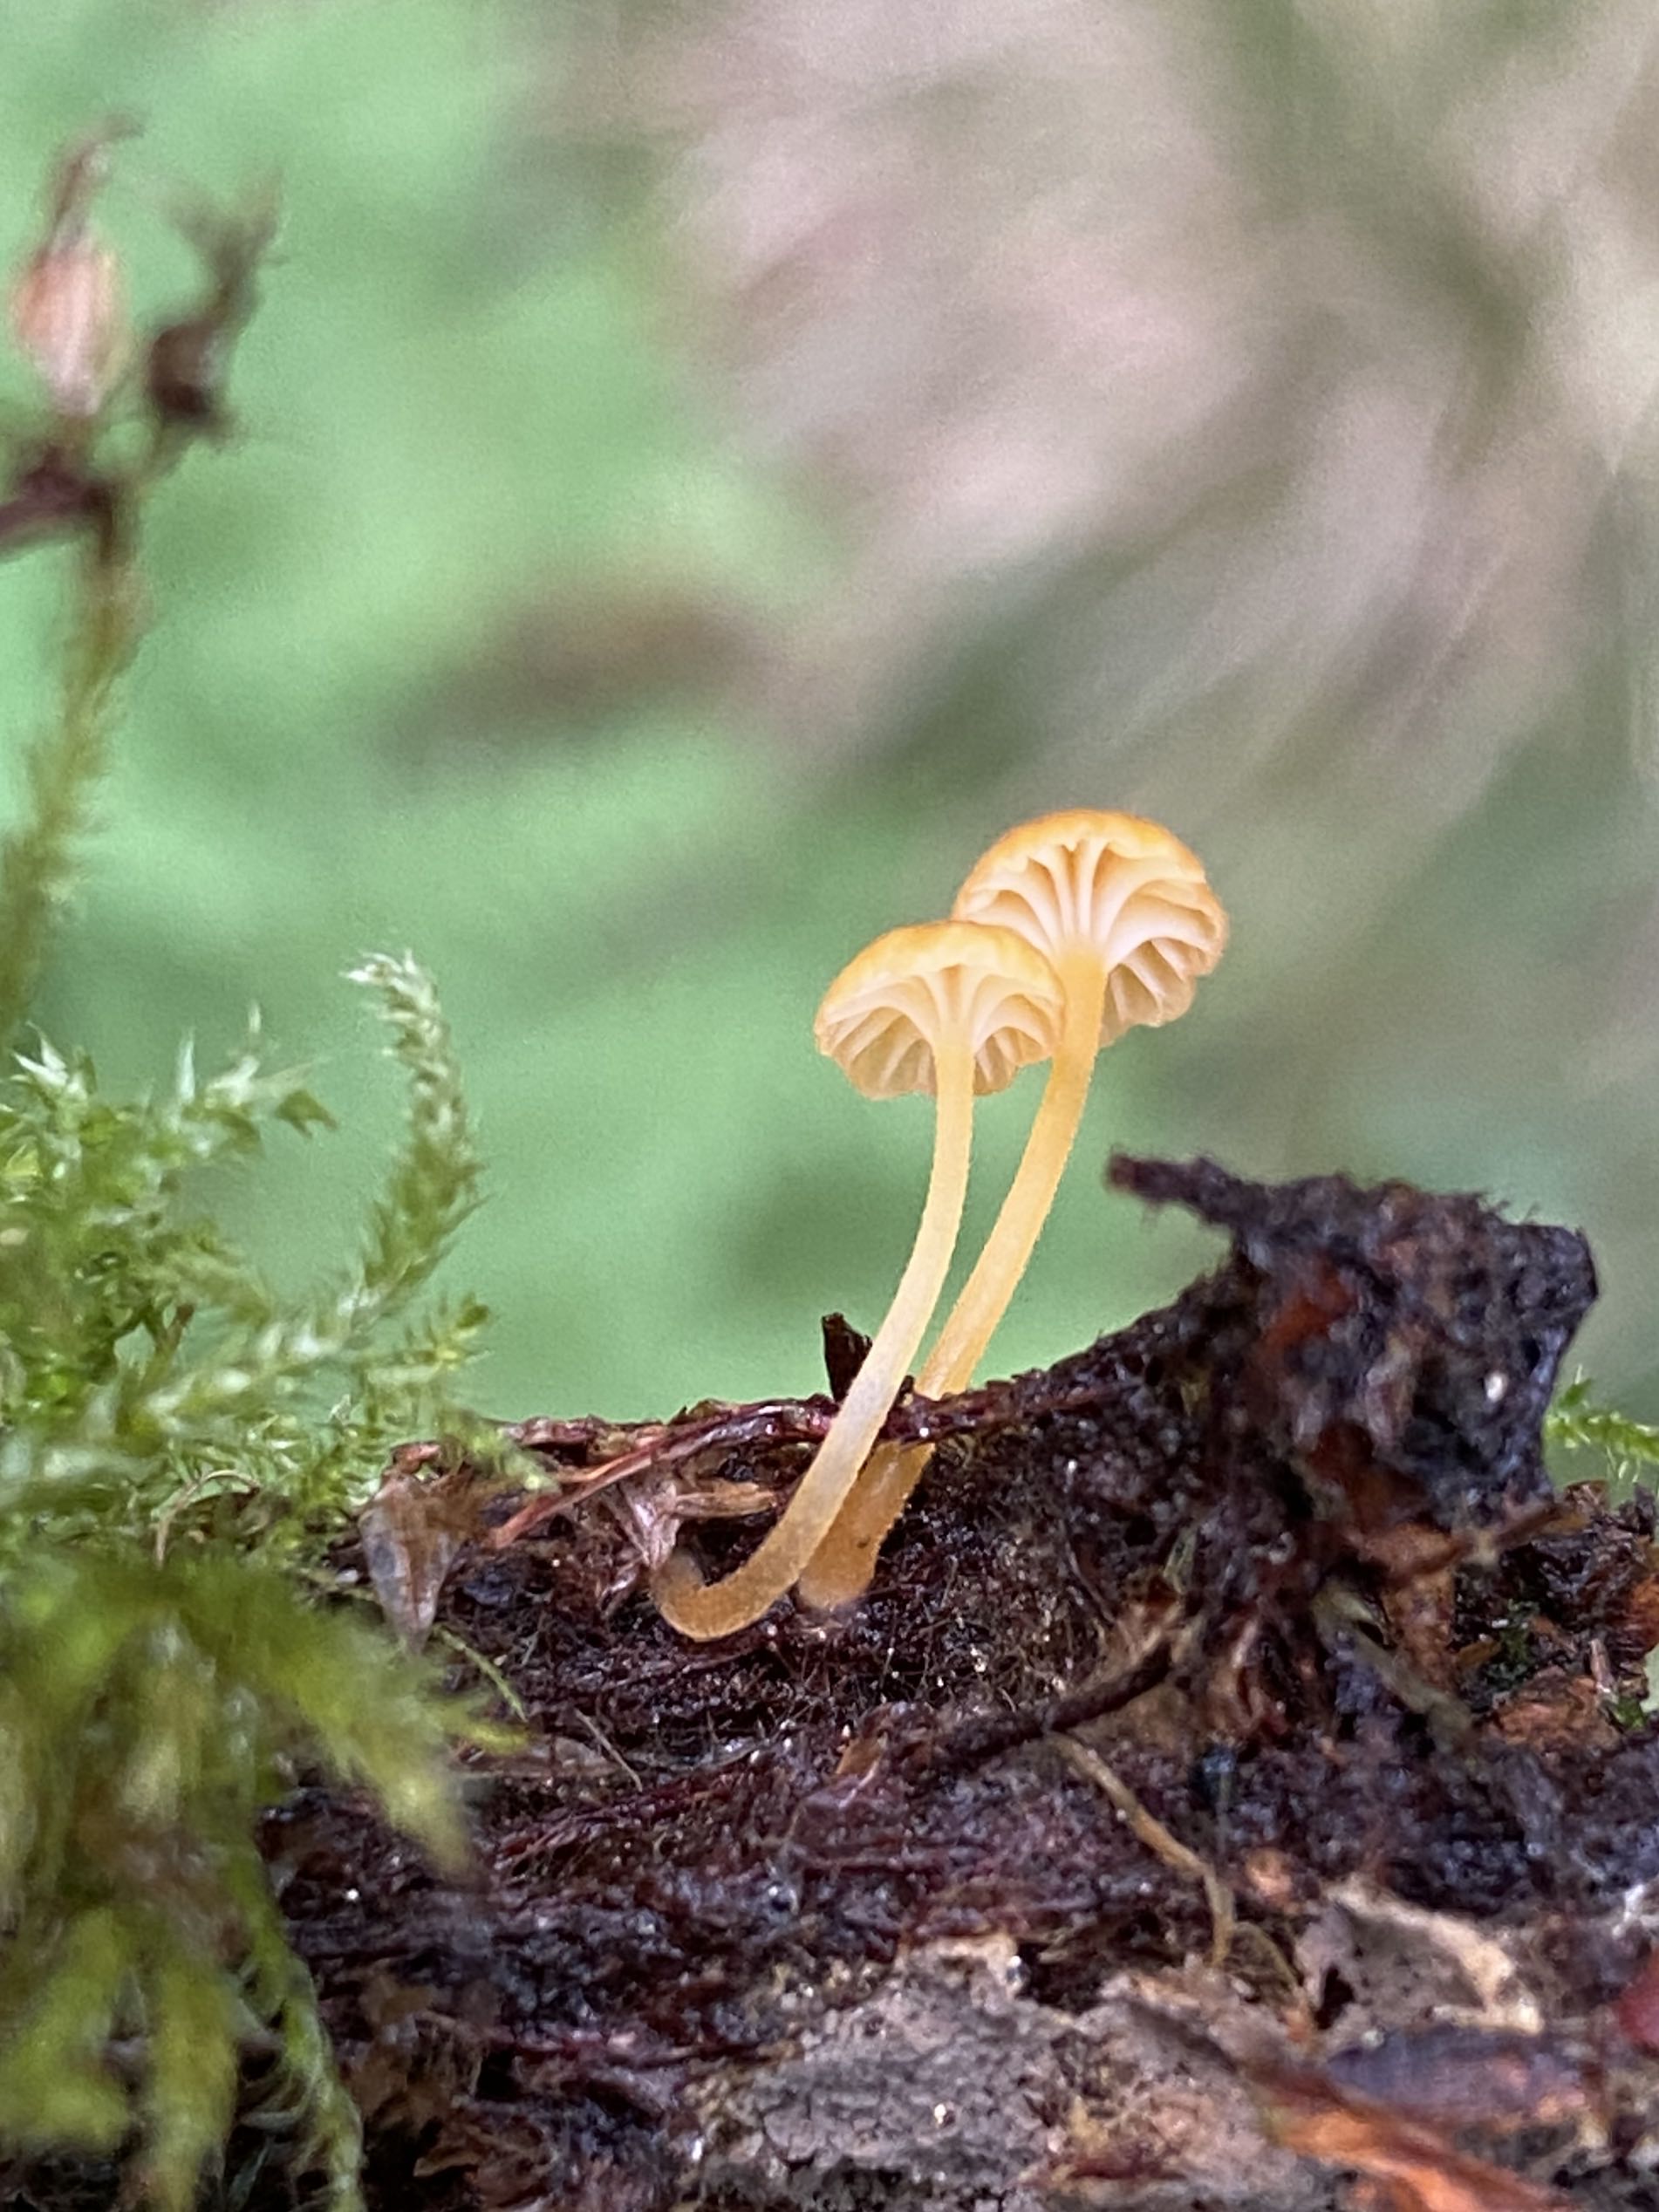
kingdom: Fungi
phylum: Basidiomycota
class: Agaricomycetes
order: Hymenochaetales
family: Rickenellaceae
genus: Rickenella
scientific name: Rickenella fibula
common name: orange mosnavlehat
